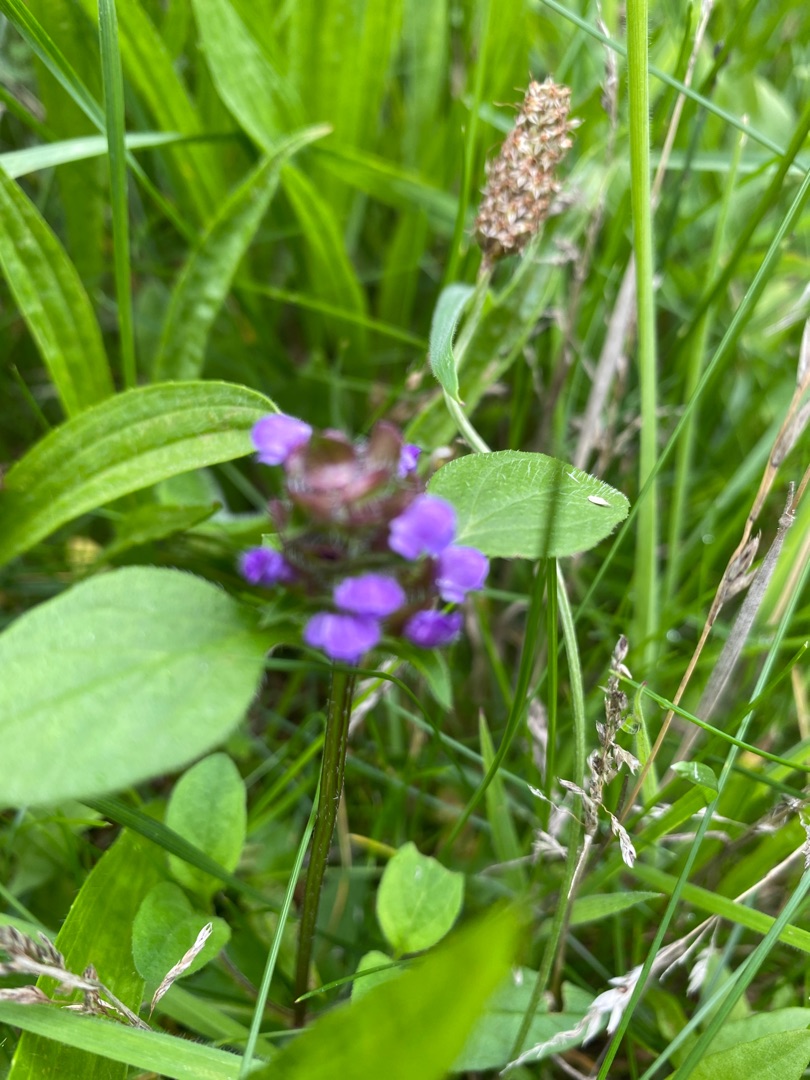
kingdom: Plantae
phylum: Tracheophyta
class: Magnoliopsida
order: Lamiales
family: Lamiaceae
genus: Prunella
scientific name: Prunella vulgaris
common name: Almindelig brunelle
